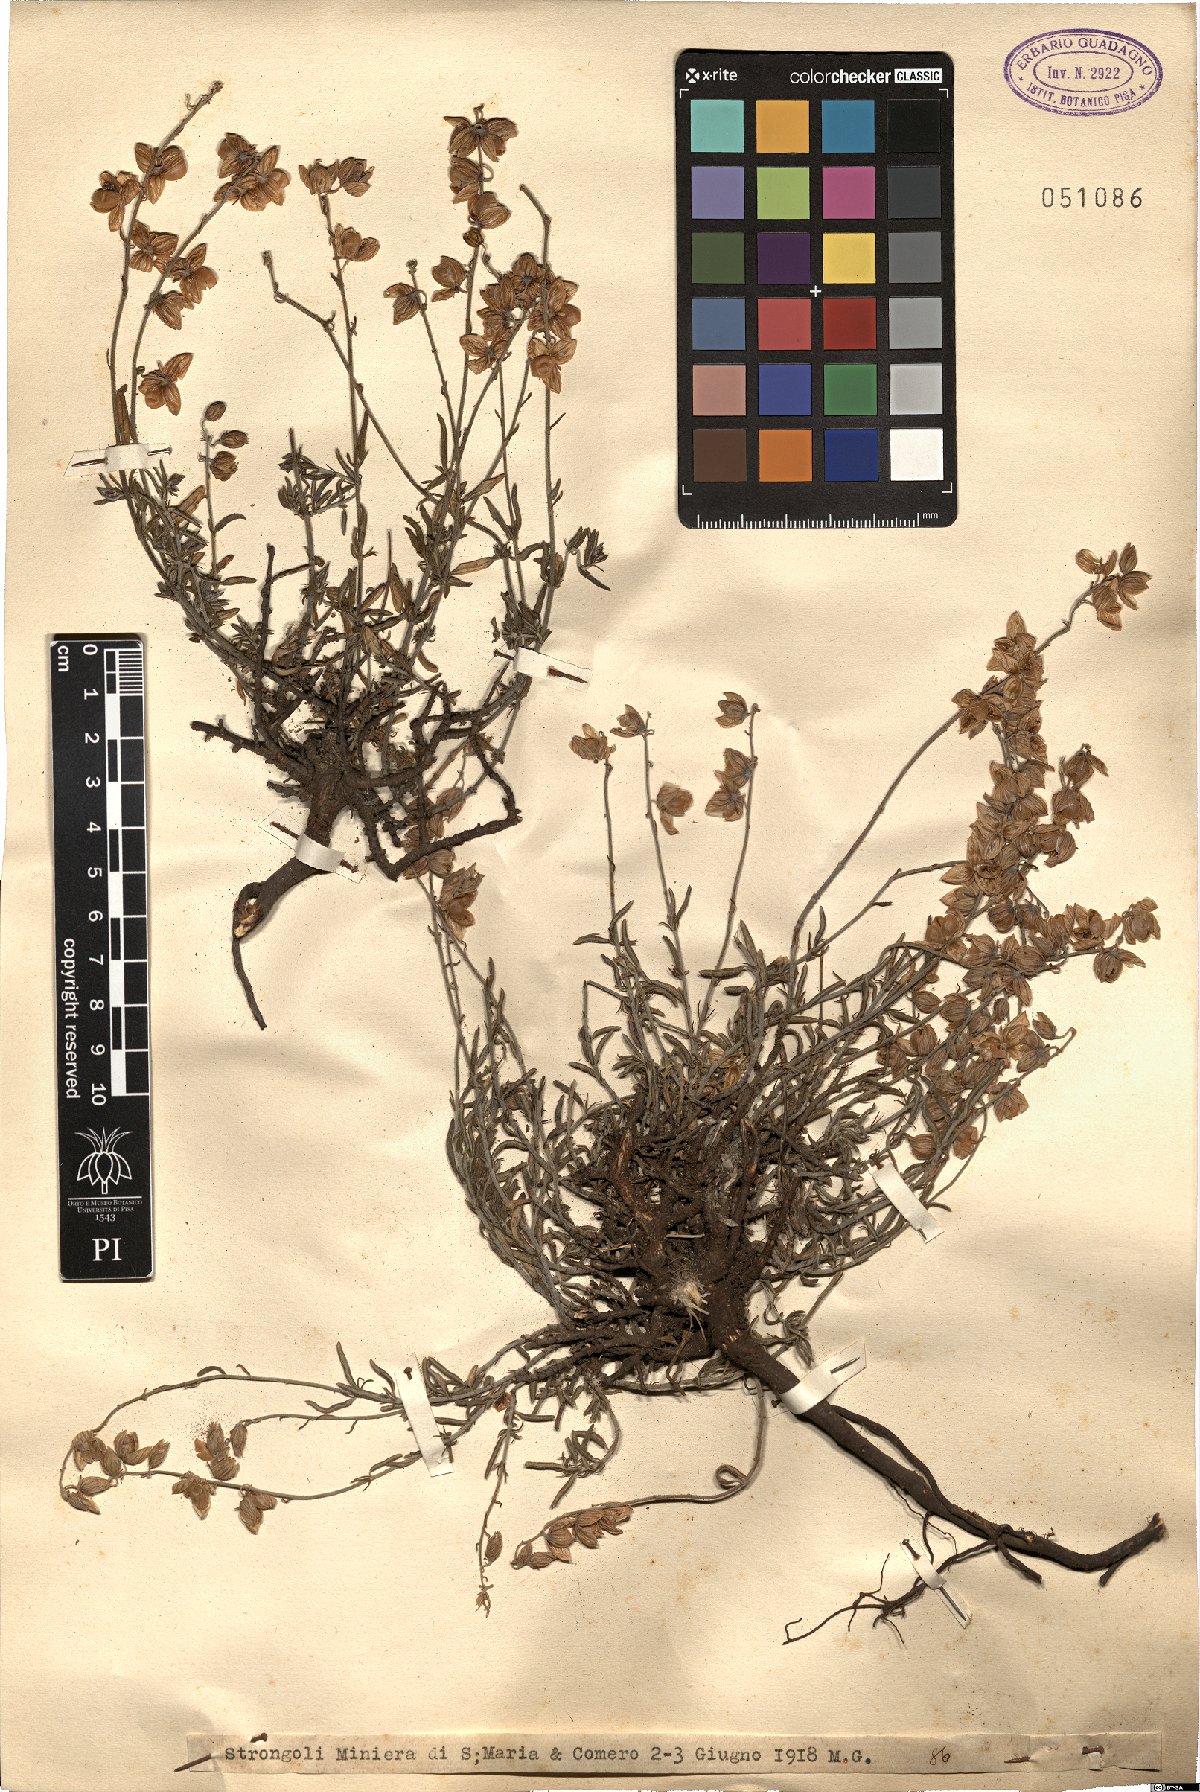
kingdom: Plantae
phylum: Tracheophyta
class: Magnoliopsida
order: Malvales
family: Cistaceae
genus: Helianthemum
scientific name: Helianthemum
